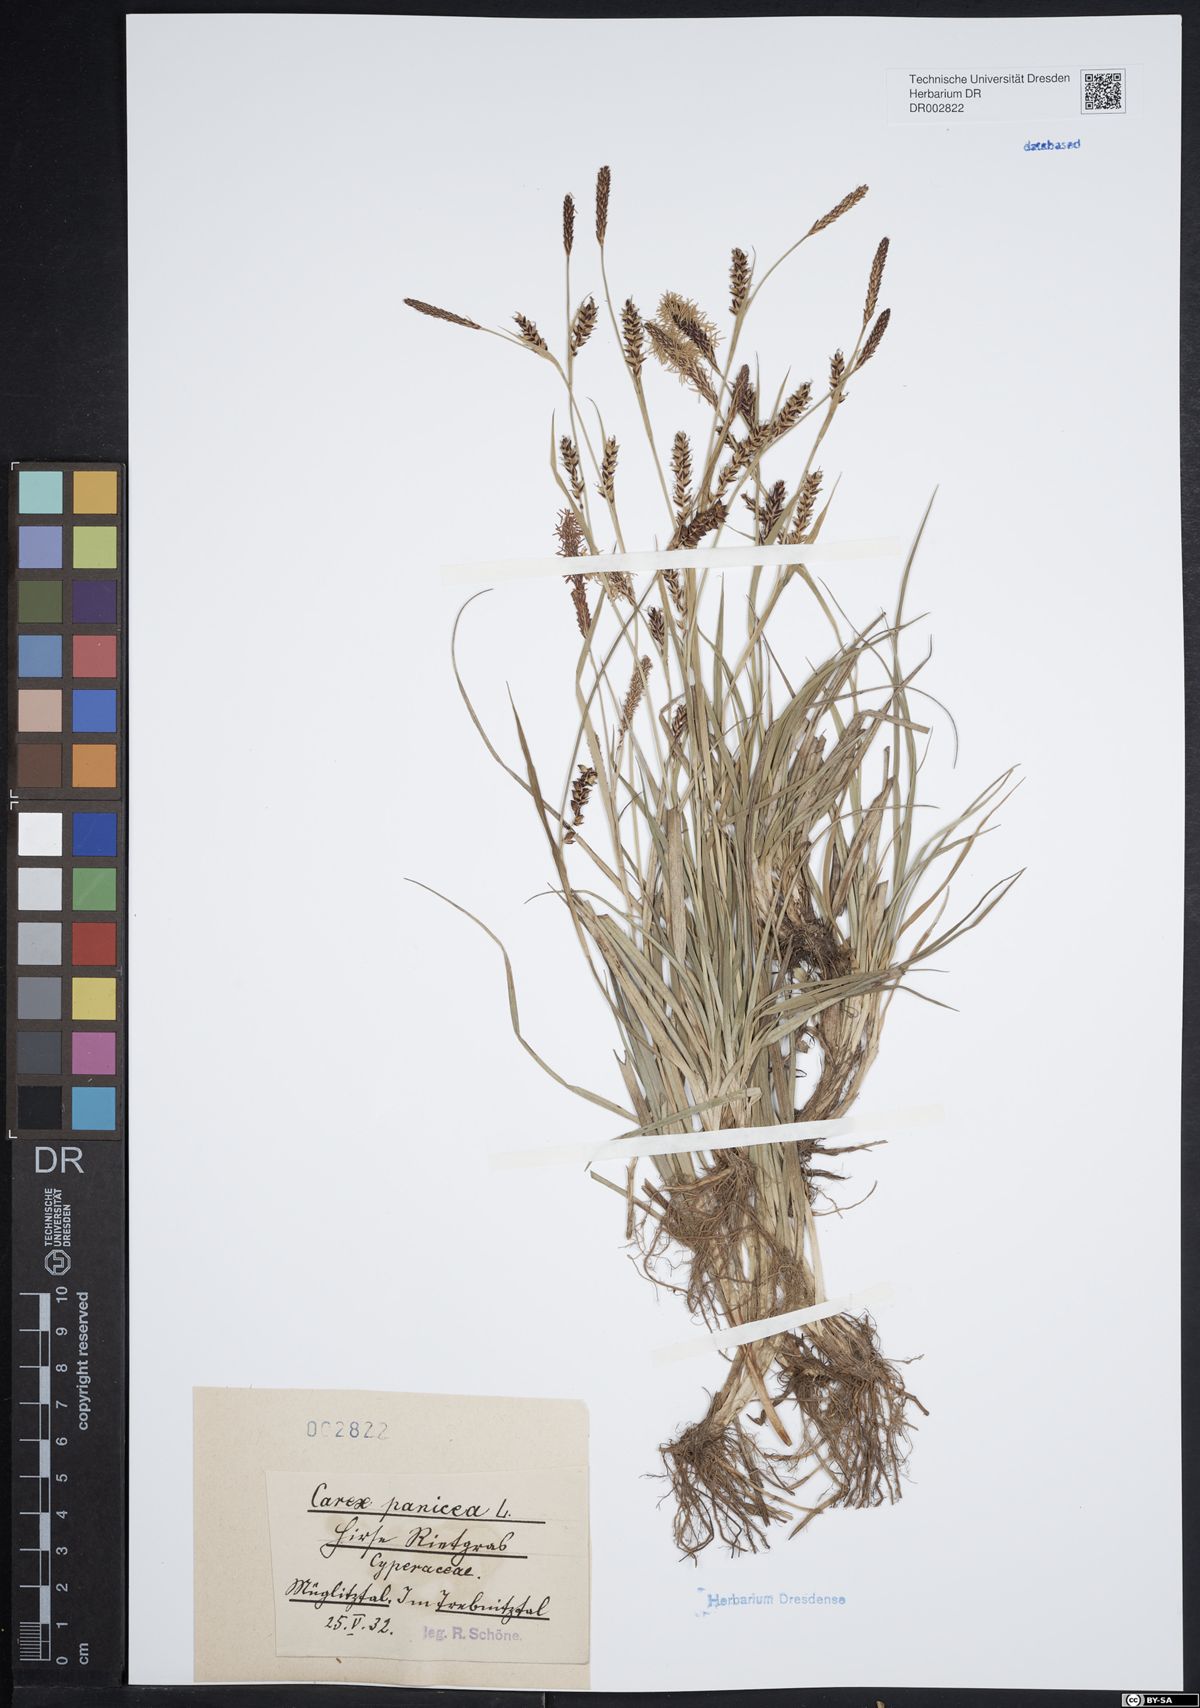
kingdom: Plantae
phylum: Tracheophyta
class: Liliopsida
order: Poales
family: Cyperaceae
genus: Carex
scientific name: Carex panicea
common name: Carnation sedge
